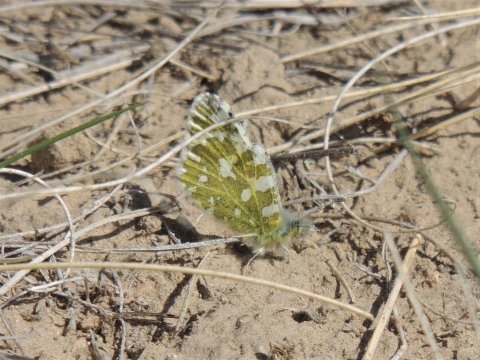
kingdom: Animalia
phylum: Arthropoda
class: Insecta
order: Lepidoptera
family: Pieridae
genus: Euchloe
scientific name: Euchloe lotta
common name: Desert Marble
